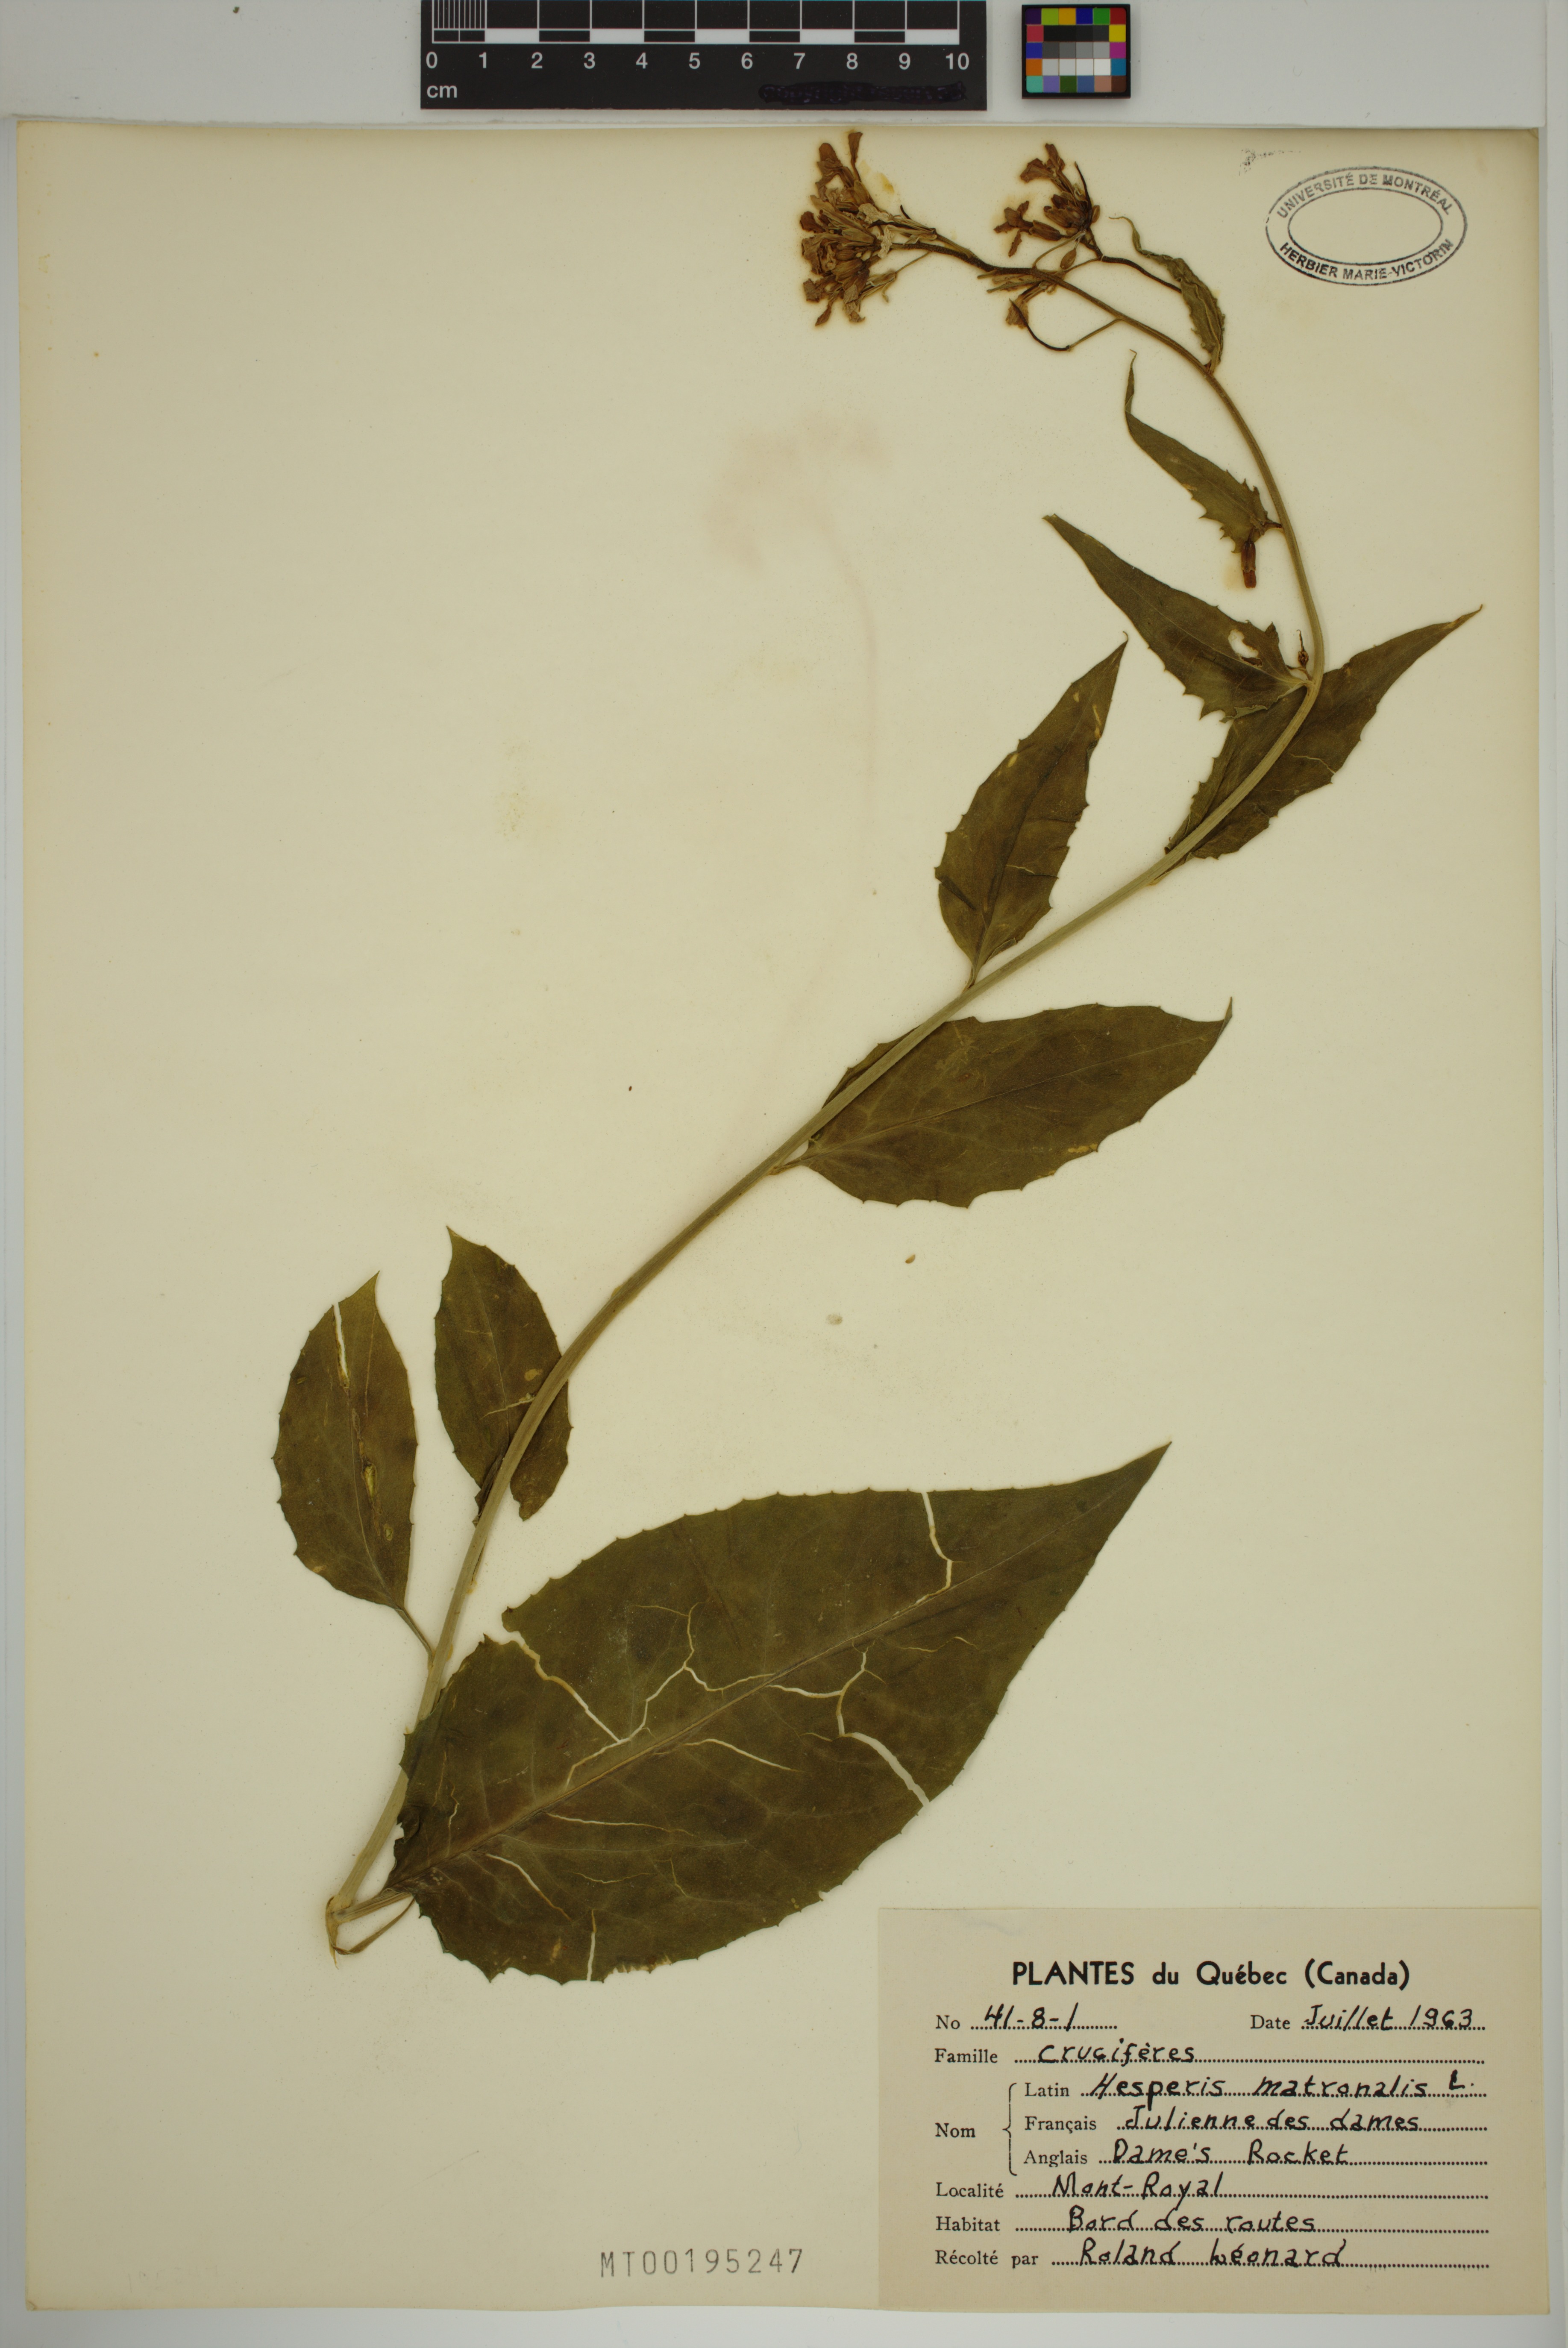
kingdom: Plantae
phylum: Tracheophyta
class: Magnoliopsida
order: Brassicales
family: Brassicaceae
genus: Hesperis
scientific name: Hesperis matronalis
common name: Dame's-violet
